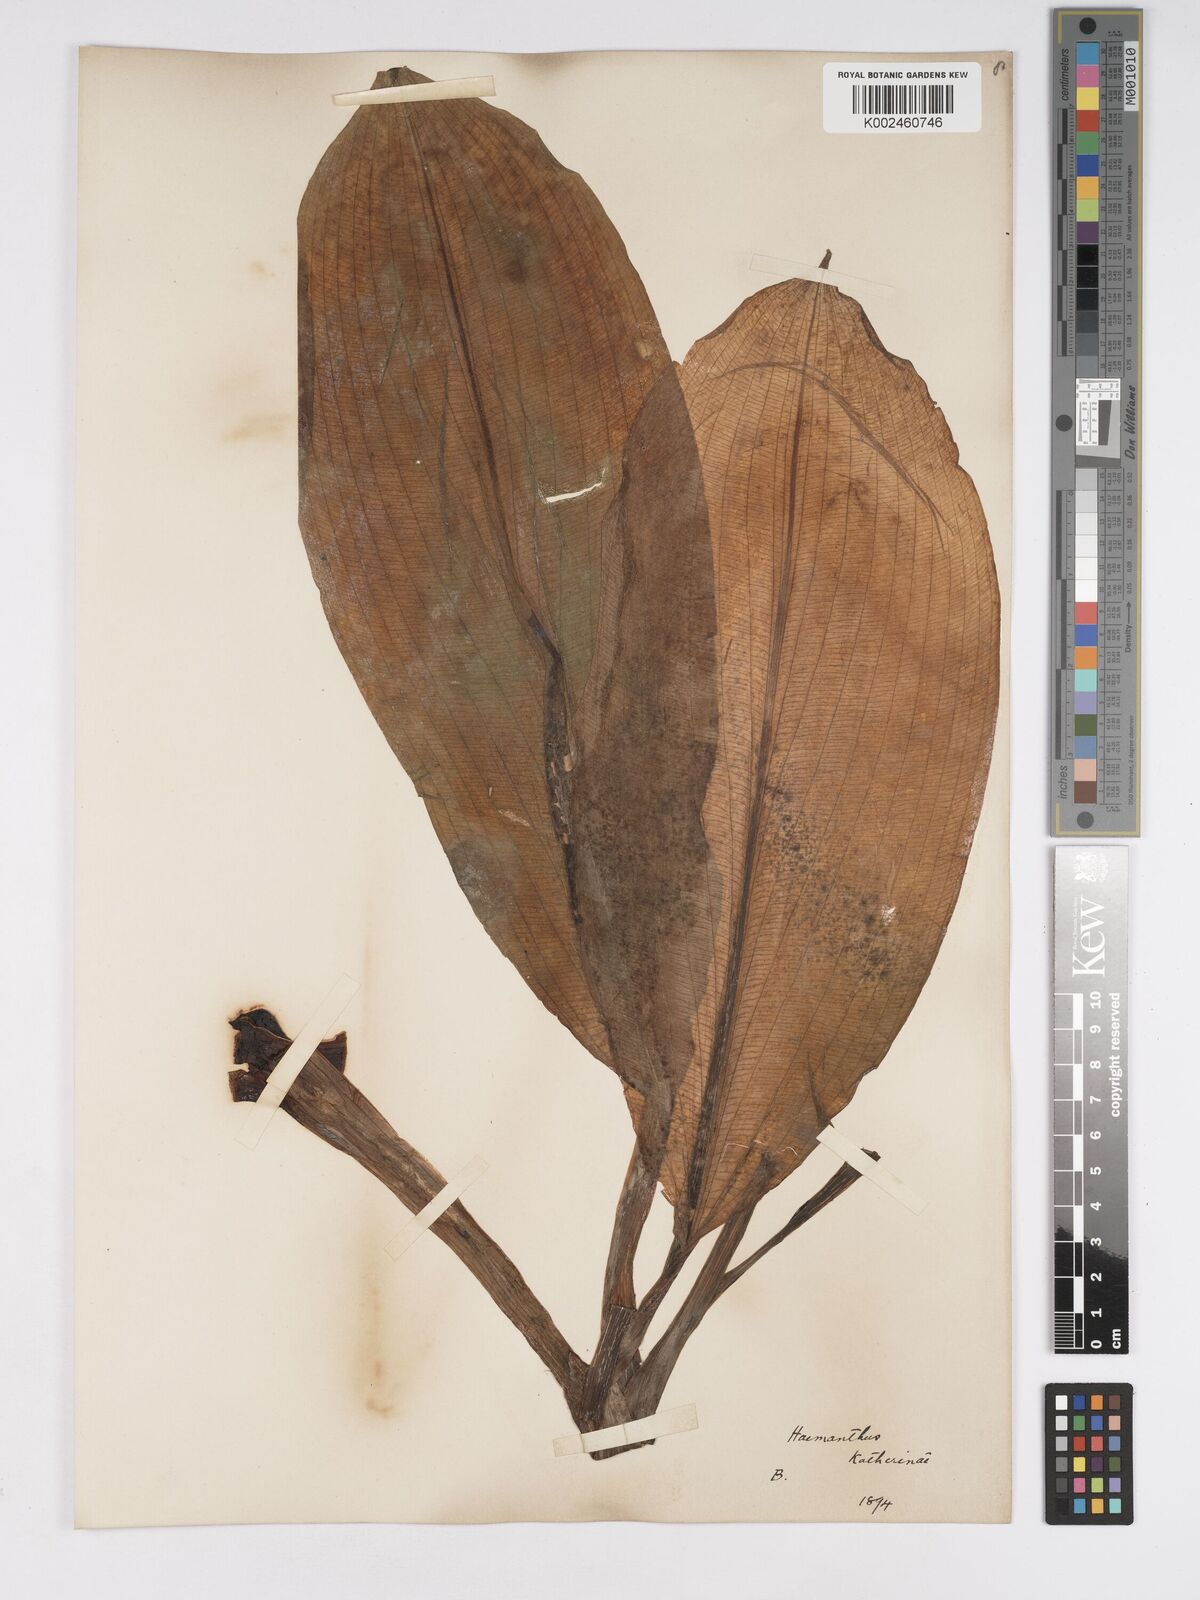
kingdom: Plantae
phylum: Tracheophyta
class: Liliopsida
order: Asparagales
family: Amaryllidaceae
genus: Scadoxus
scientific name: Scadoxus multiflorus
